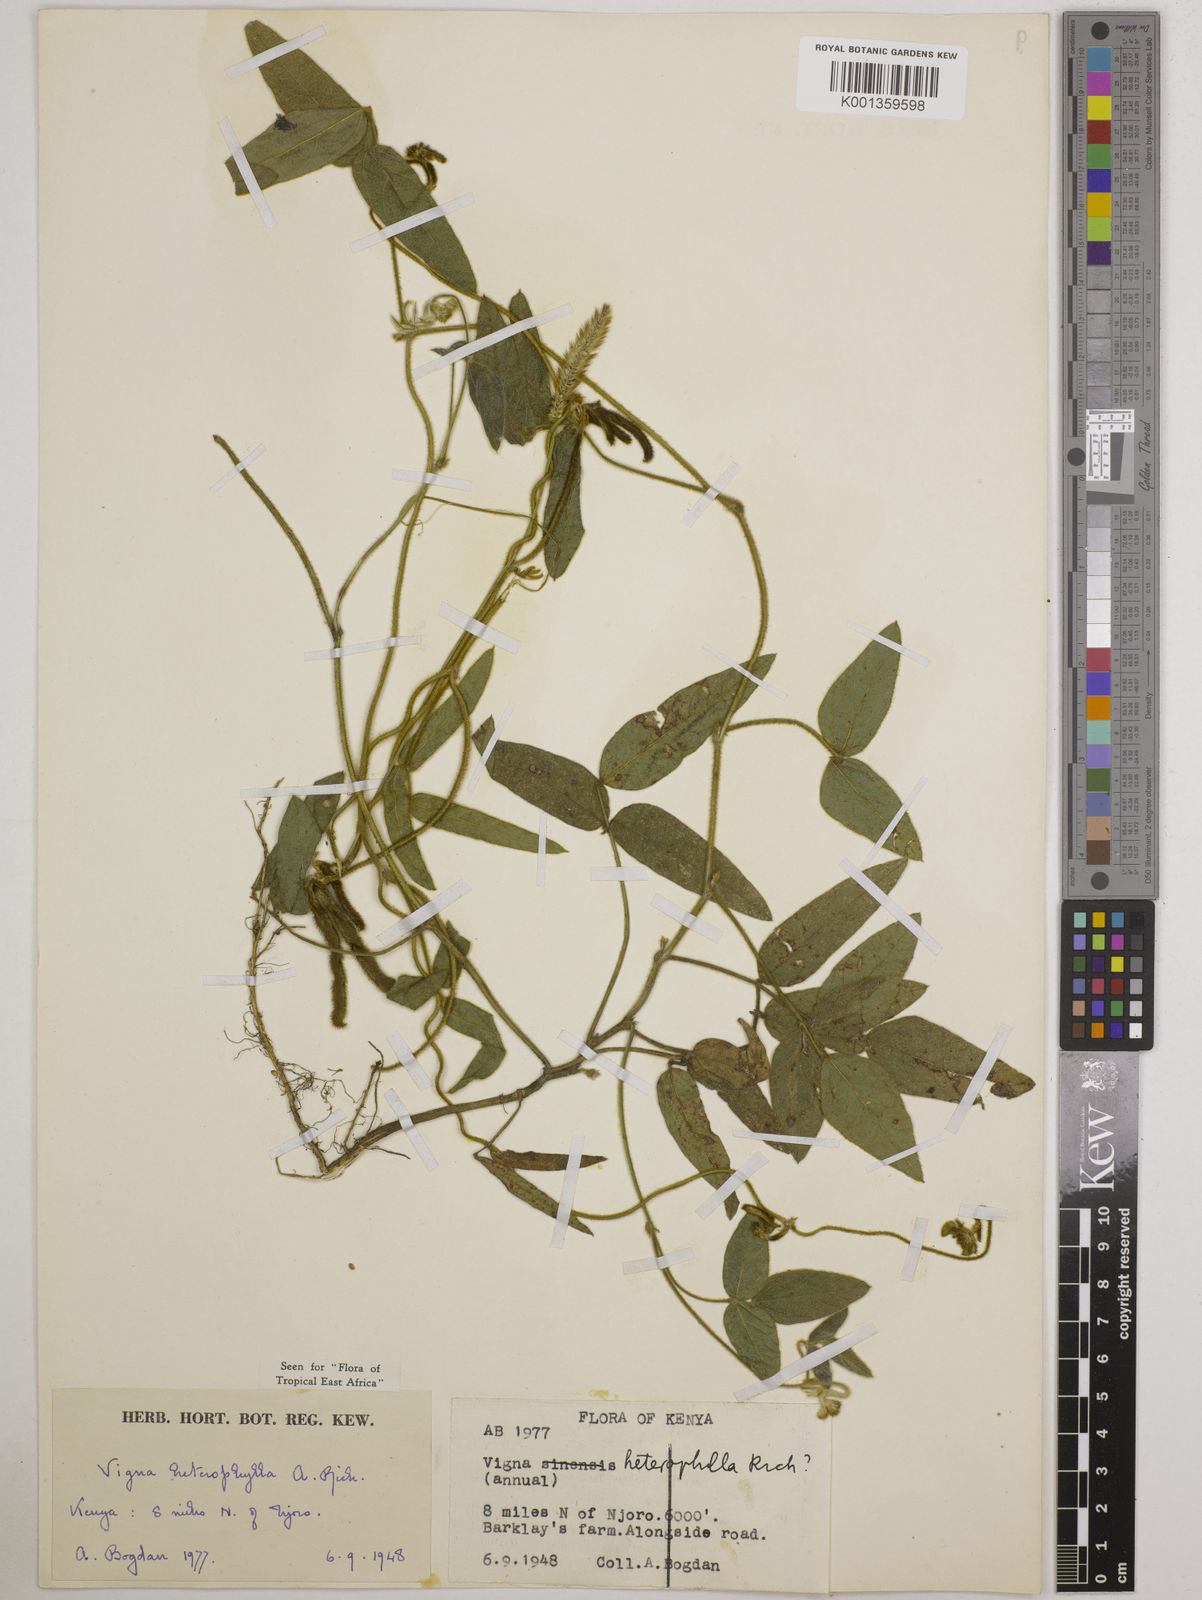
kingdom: Plantae
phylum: Tracheophyta
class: Magnoliopsida
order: Fabales
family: Fabaceae
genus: Vigna
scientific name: Vigna heterophylla
